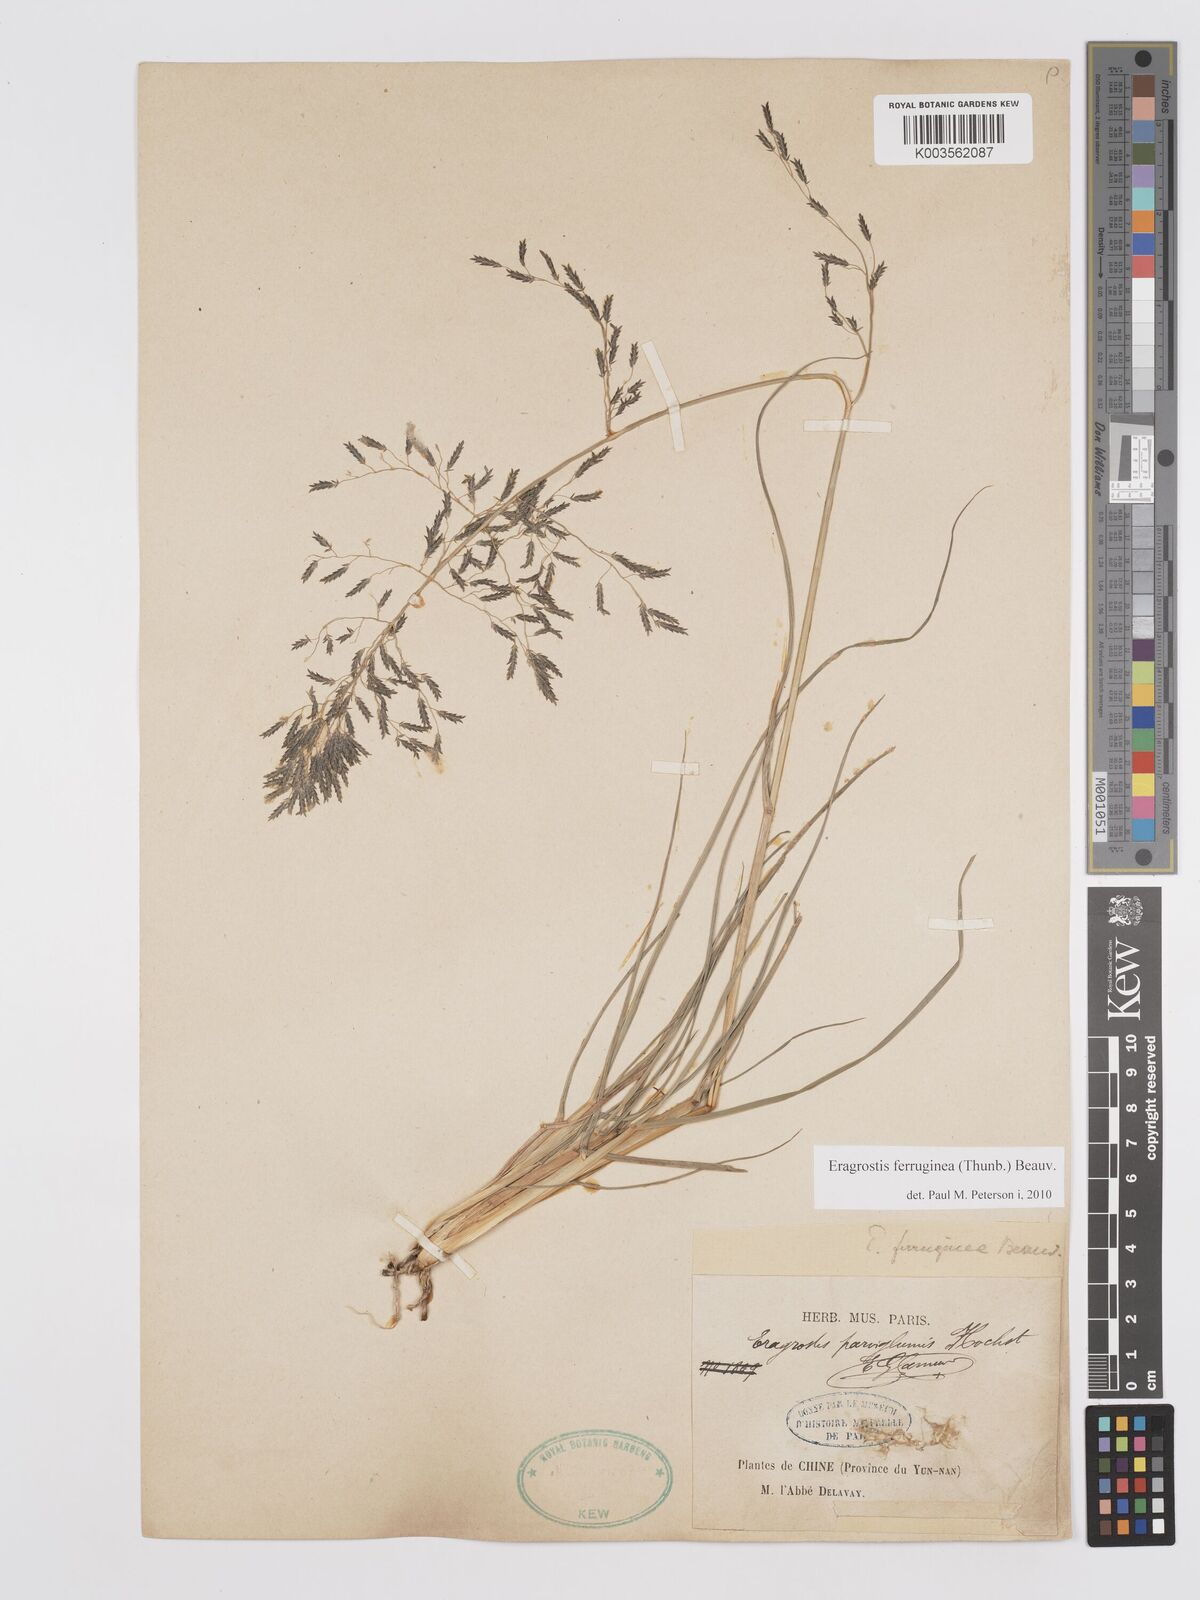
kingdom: Plantae
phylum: Tracheophyta
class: Liliopsida
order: Poales
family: Poaceae
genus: Eragrostis
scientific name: Eragrostis ferruginea
